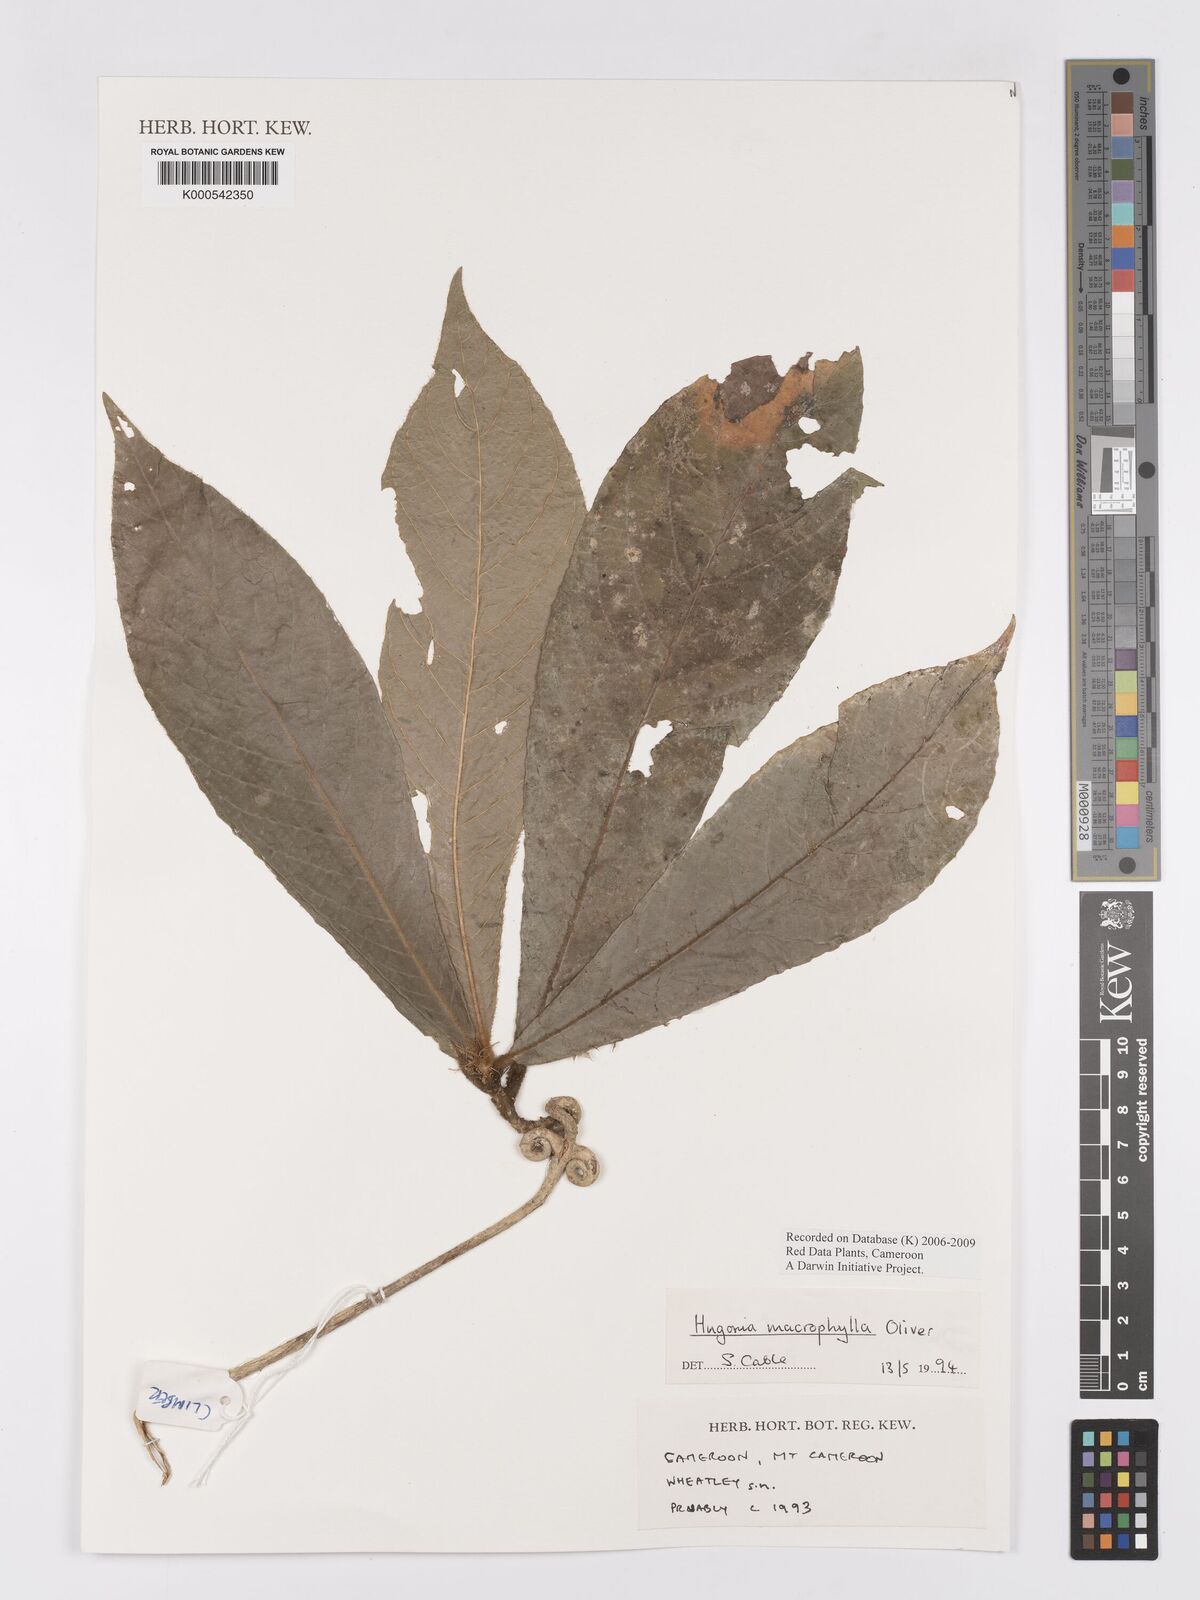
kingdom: Plantae
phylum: Tracheophyta
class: Magnoliopsida
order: Malpighiales
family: Linaceae
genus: Hugonia
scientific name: Hugonia macrophylla
